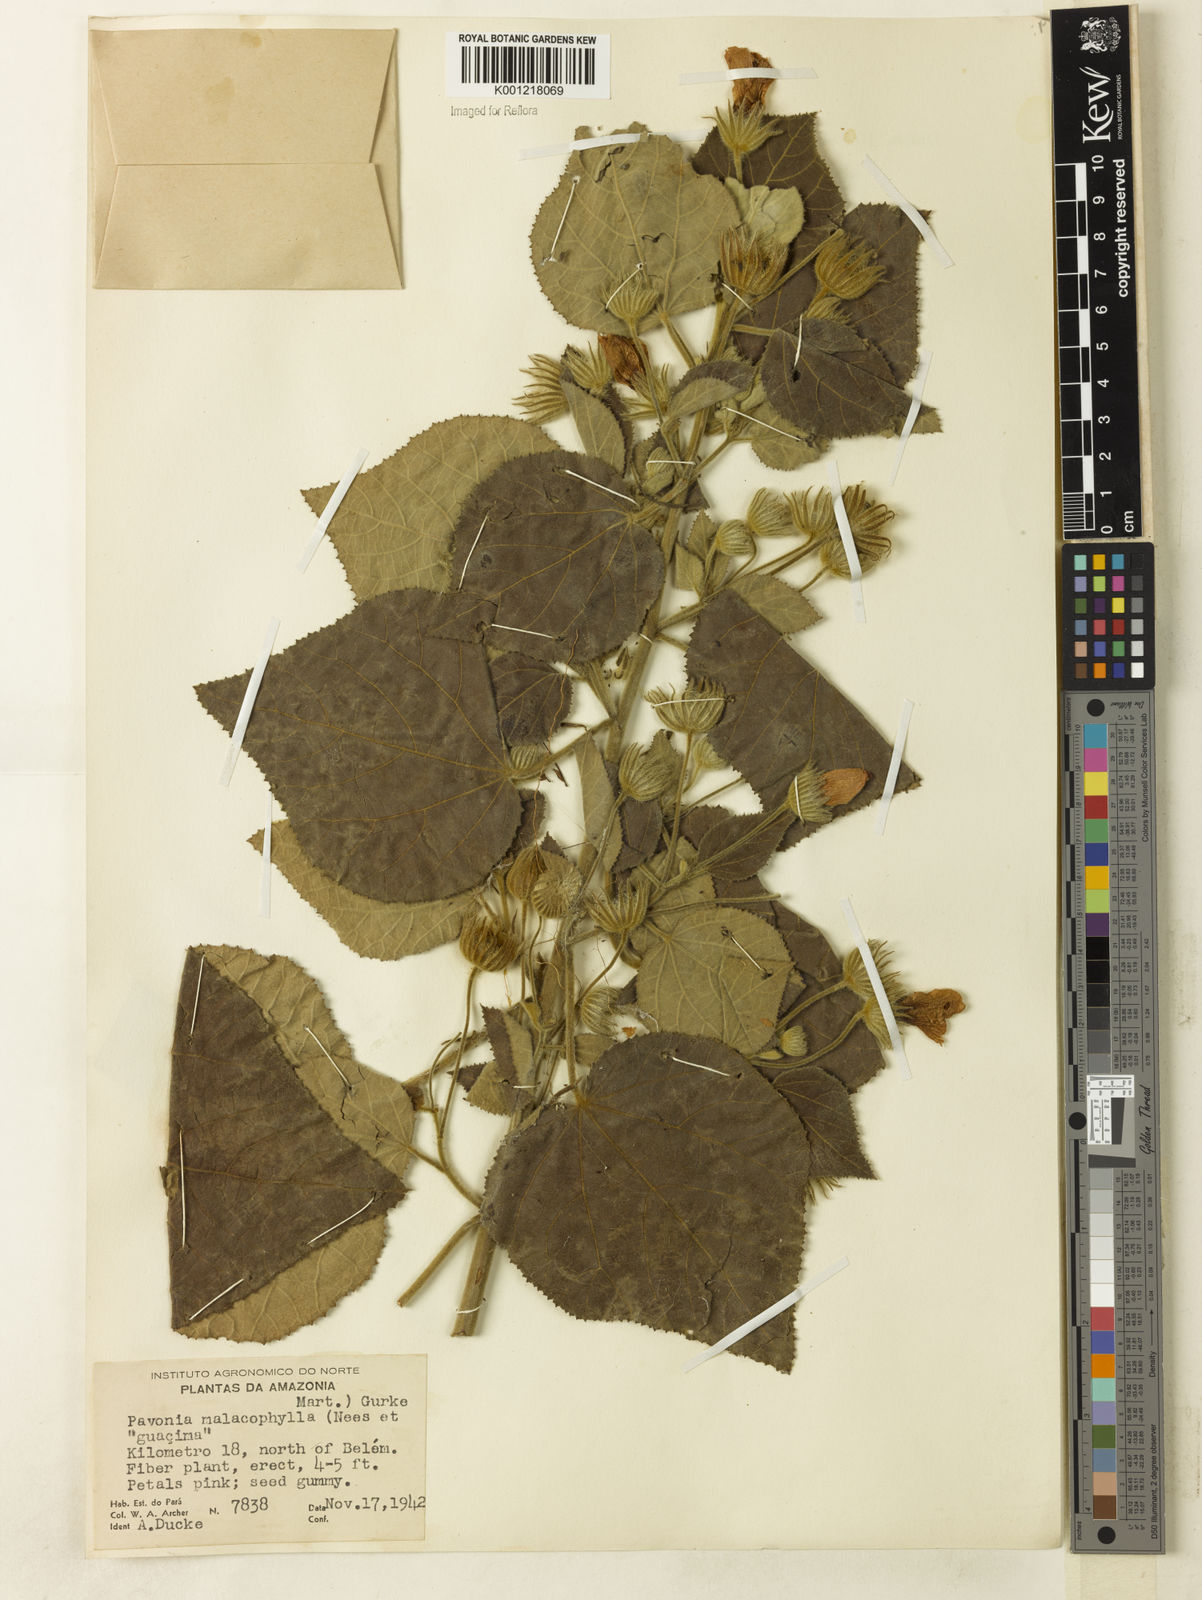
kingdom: Plantae
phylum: Tracheophyta
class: Magnoliopsida
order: Malvales
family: Malvaceae
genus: Pavonia
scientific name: Pavonia malacophylla
